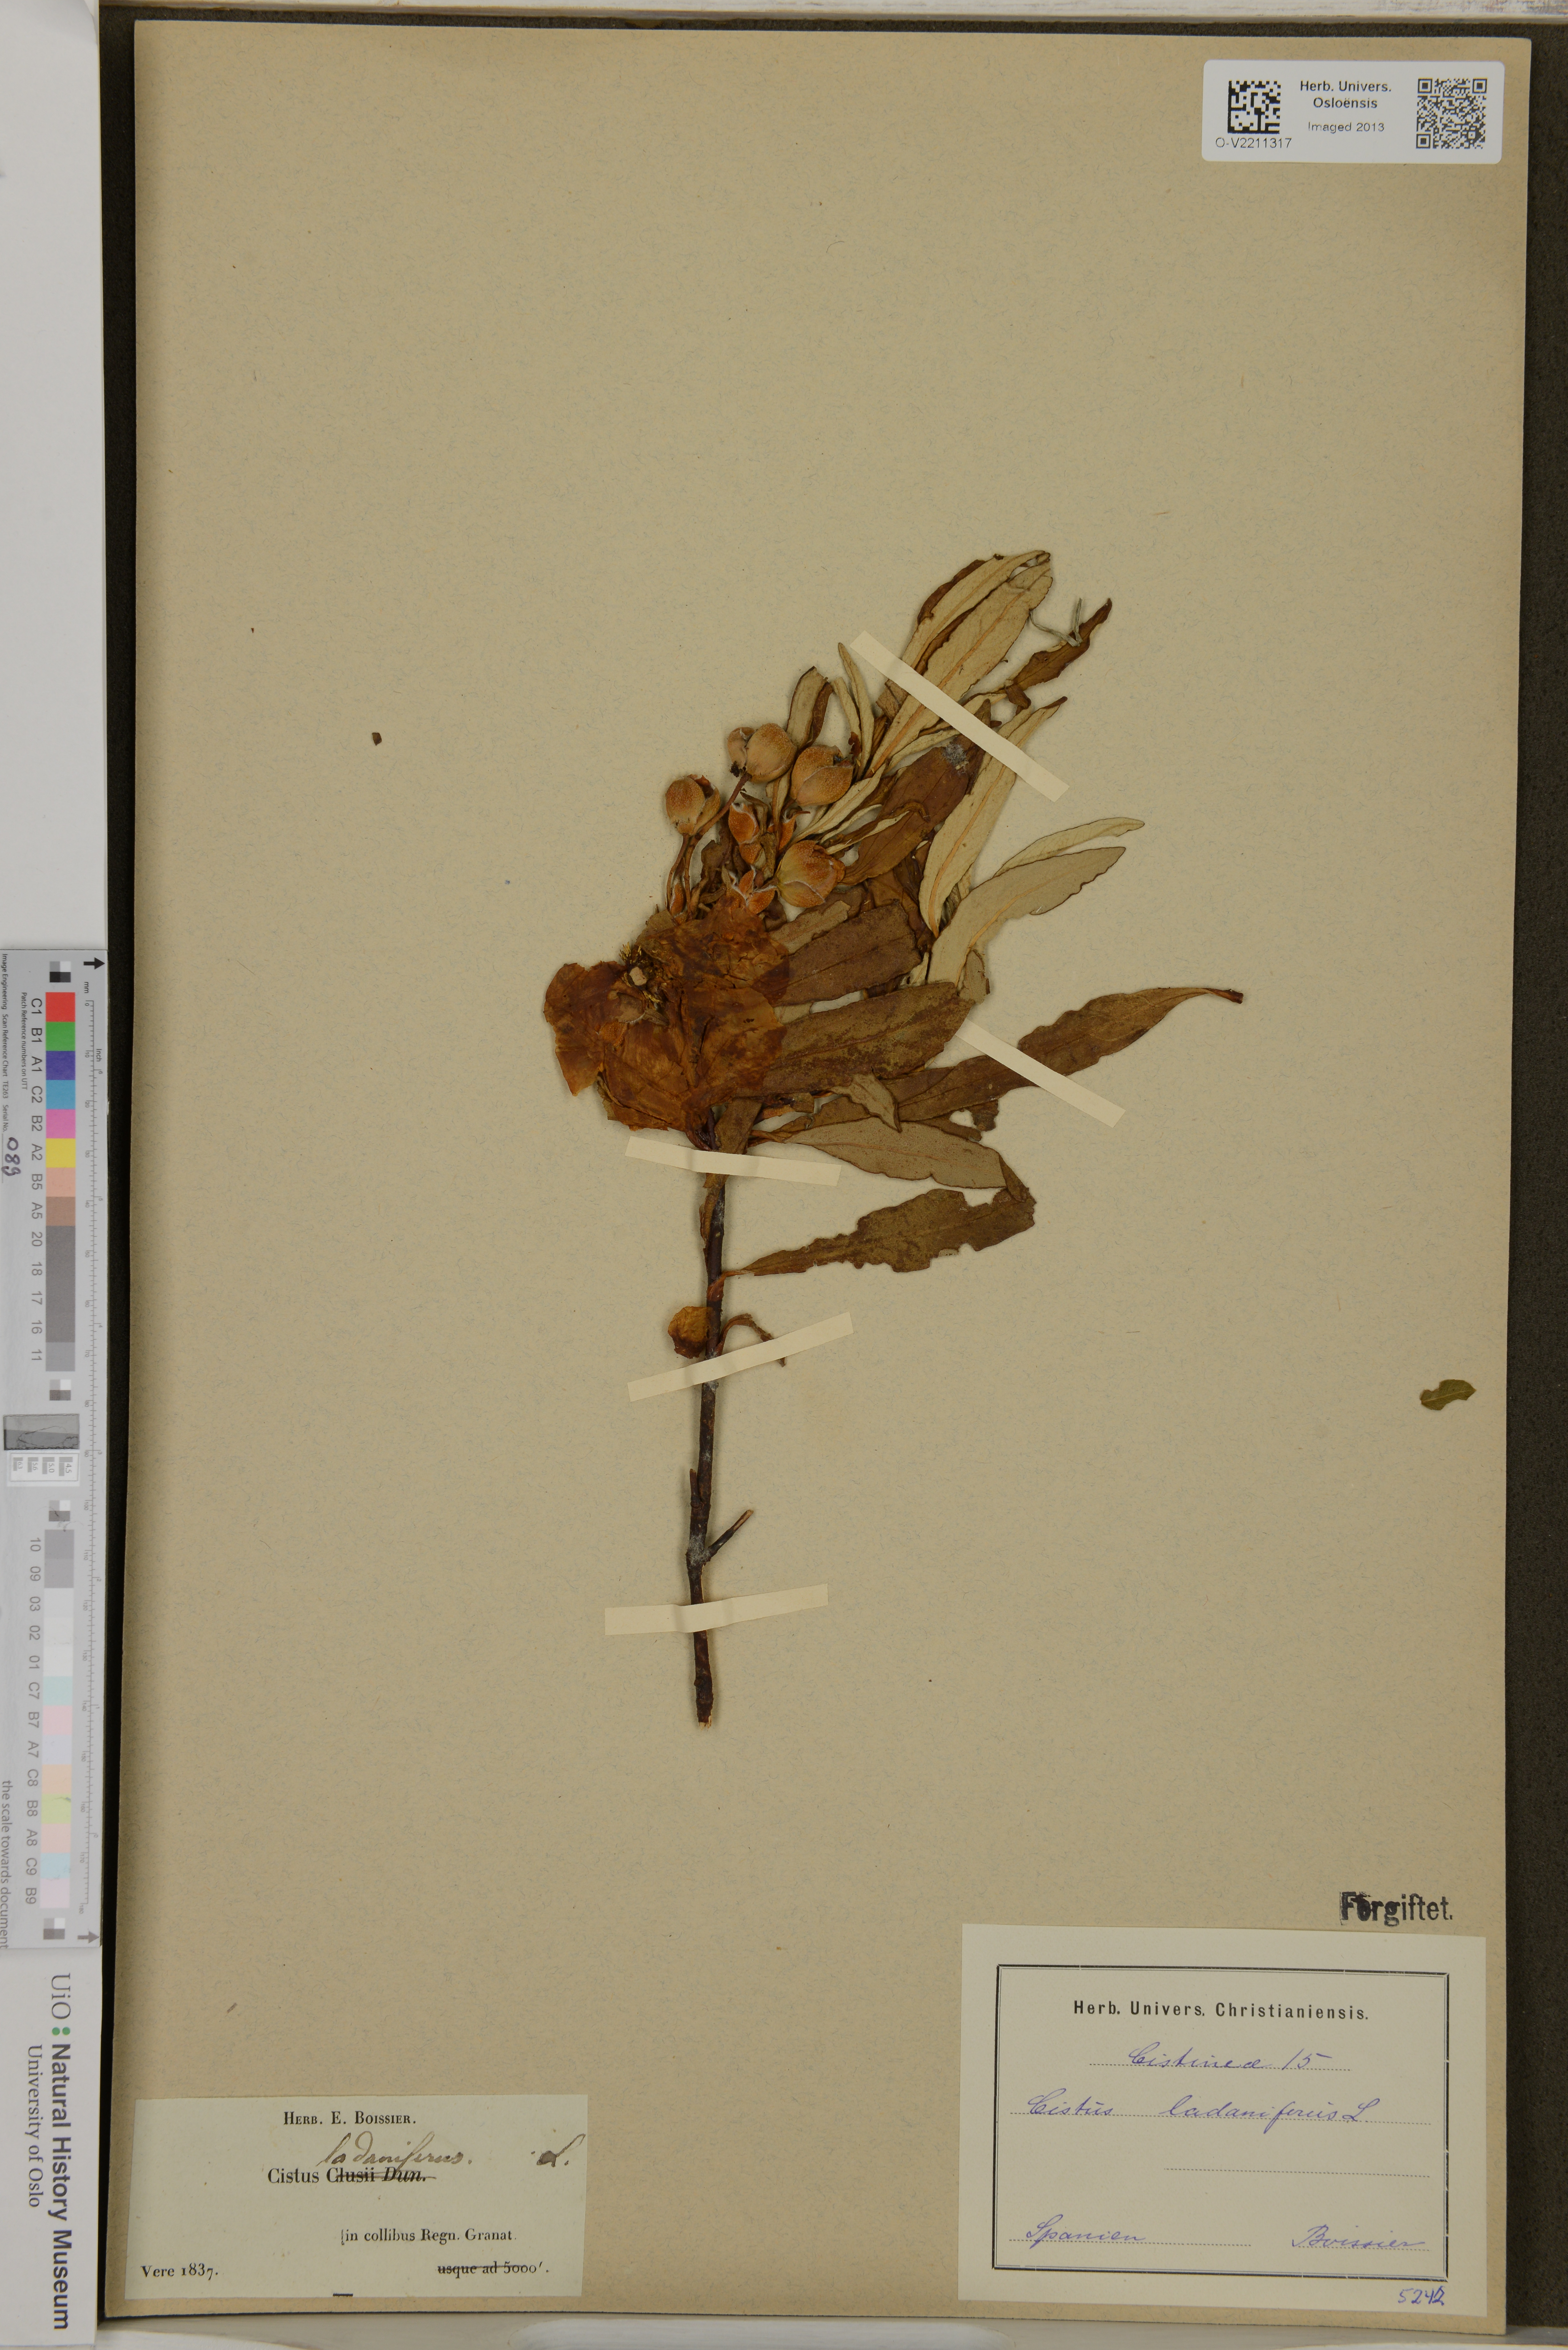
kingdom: Plantae
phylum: Tracheophyta
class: Magnoliopsida
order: Malvales
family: Cistaceae
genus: Cistus
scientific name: Cistus
